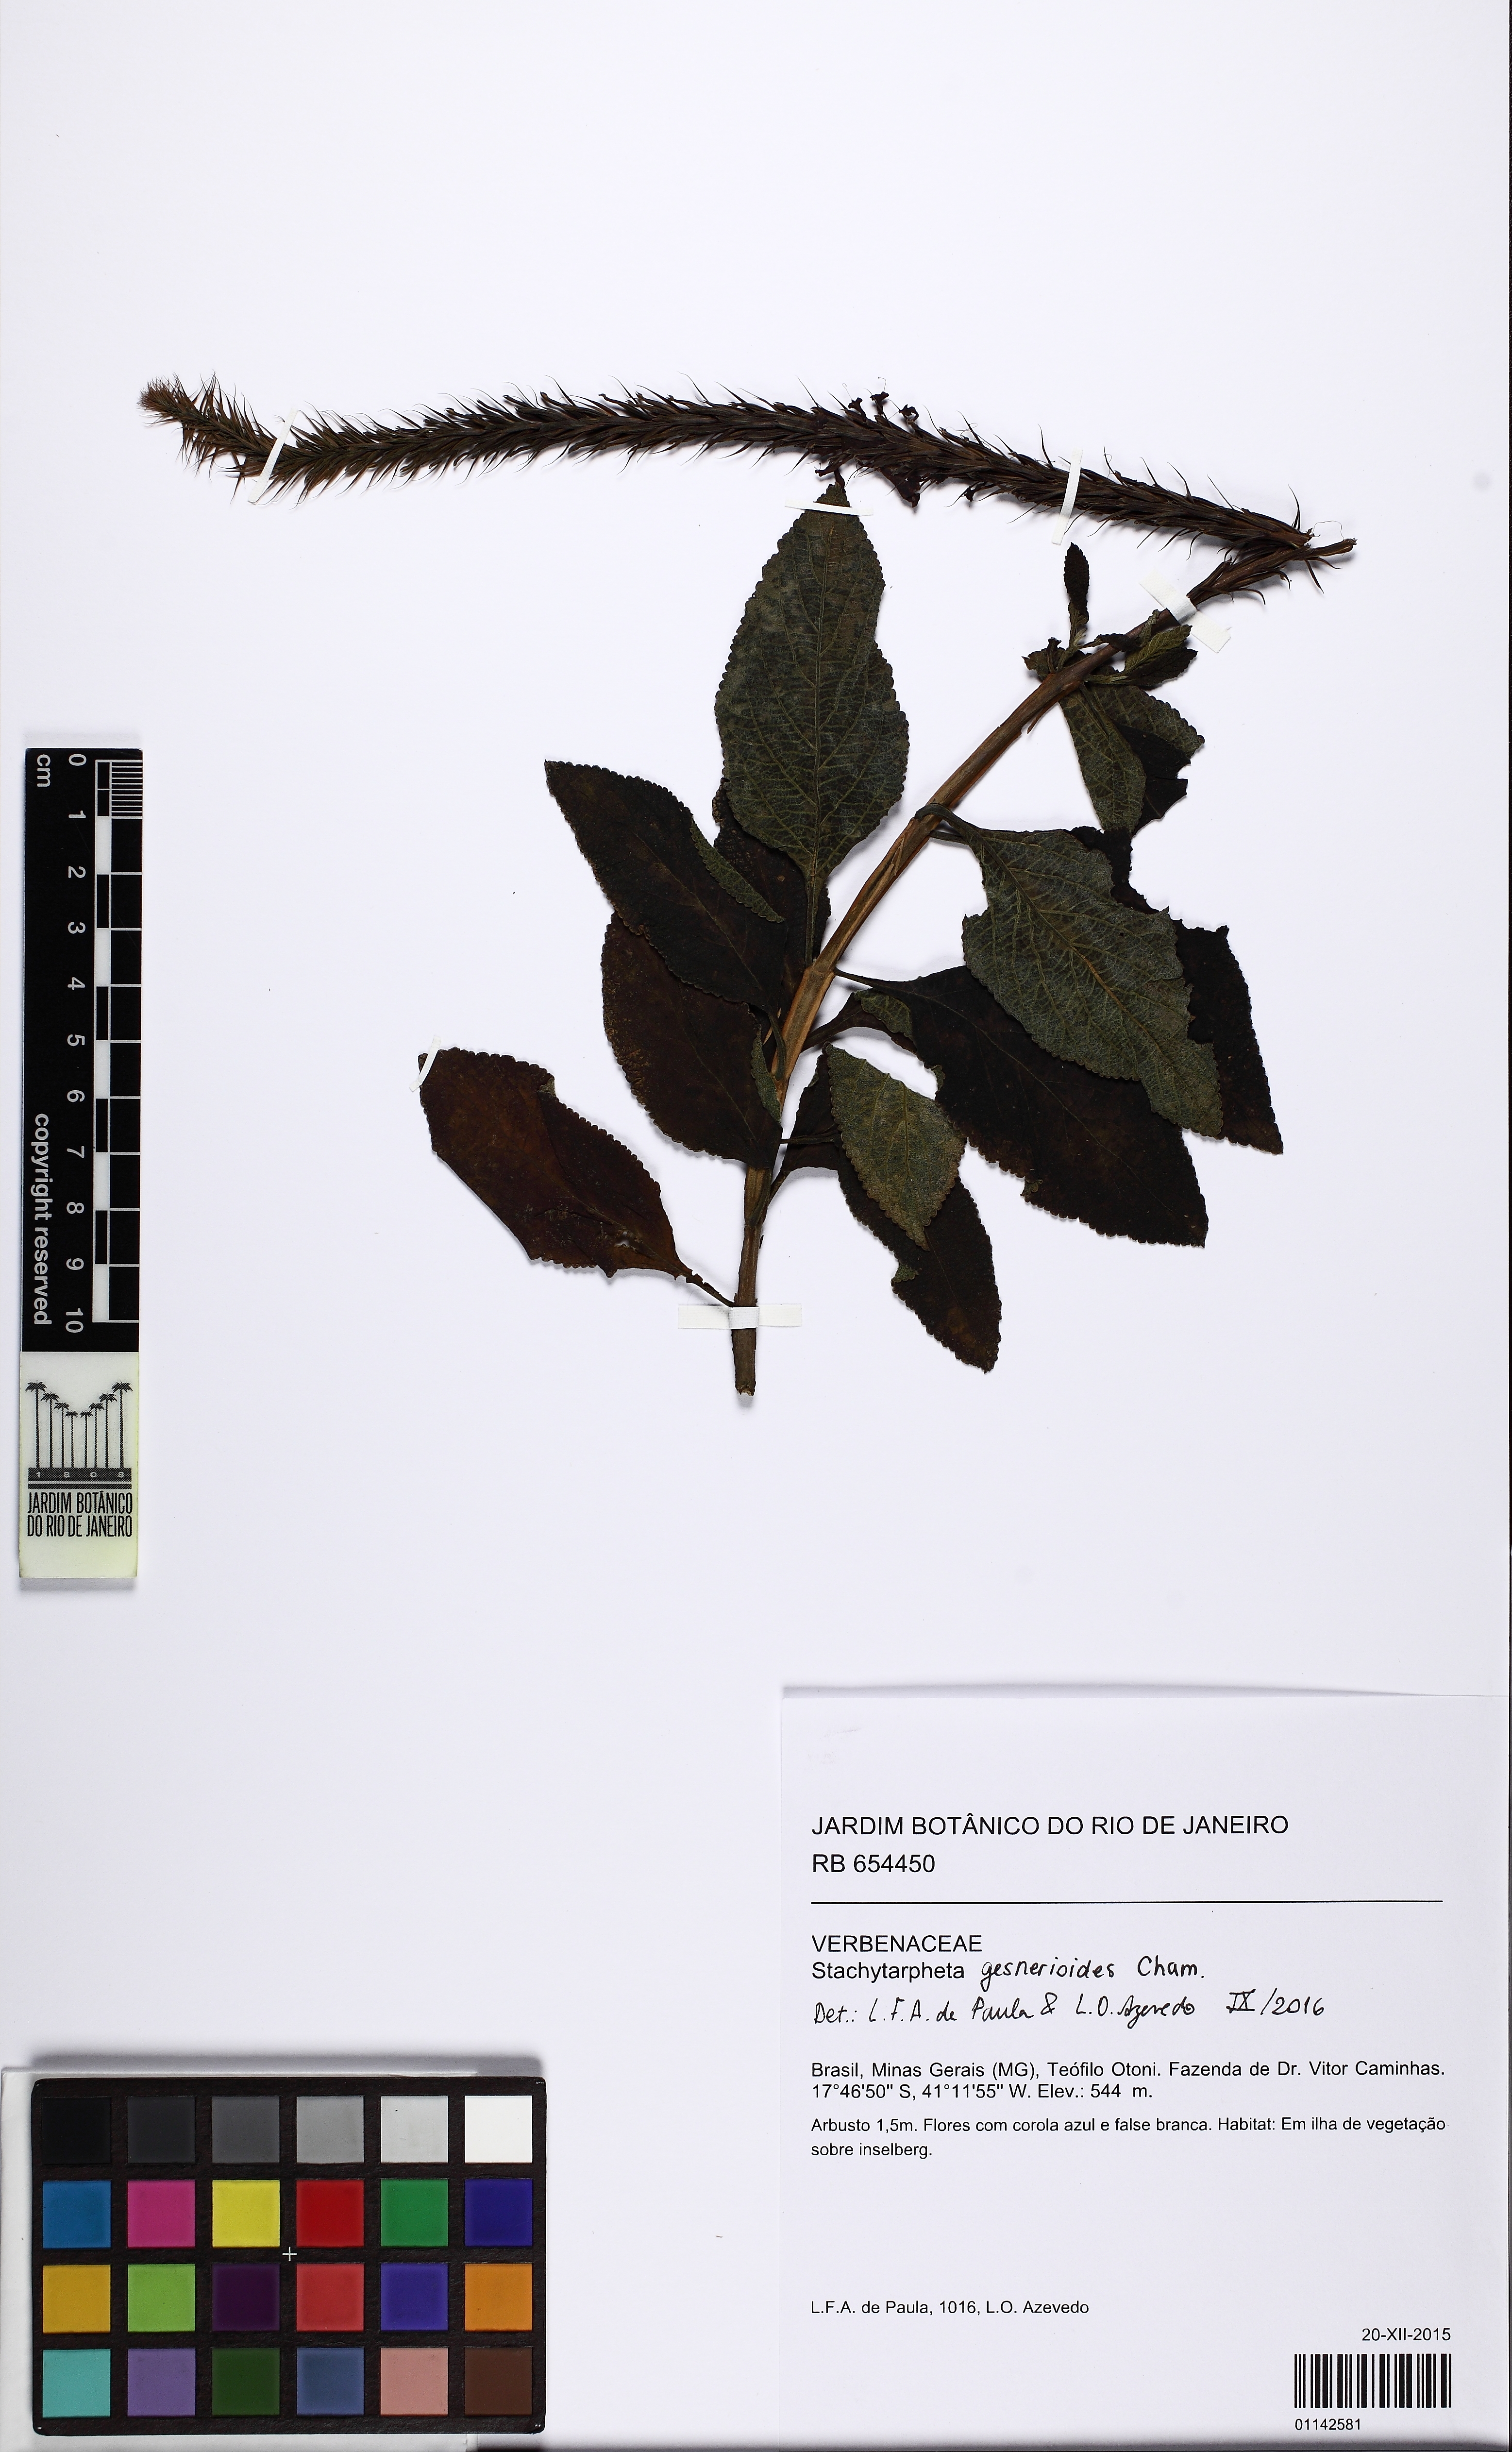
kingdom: Plantae
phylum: Tracheophyta
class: Magnoliopsida
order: Lamiales
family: Verbenaceae
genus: Stachytarpheta
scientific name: Stachytarpheta alata
